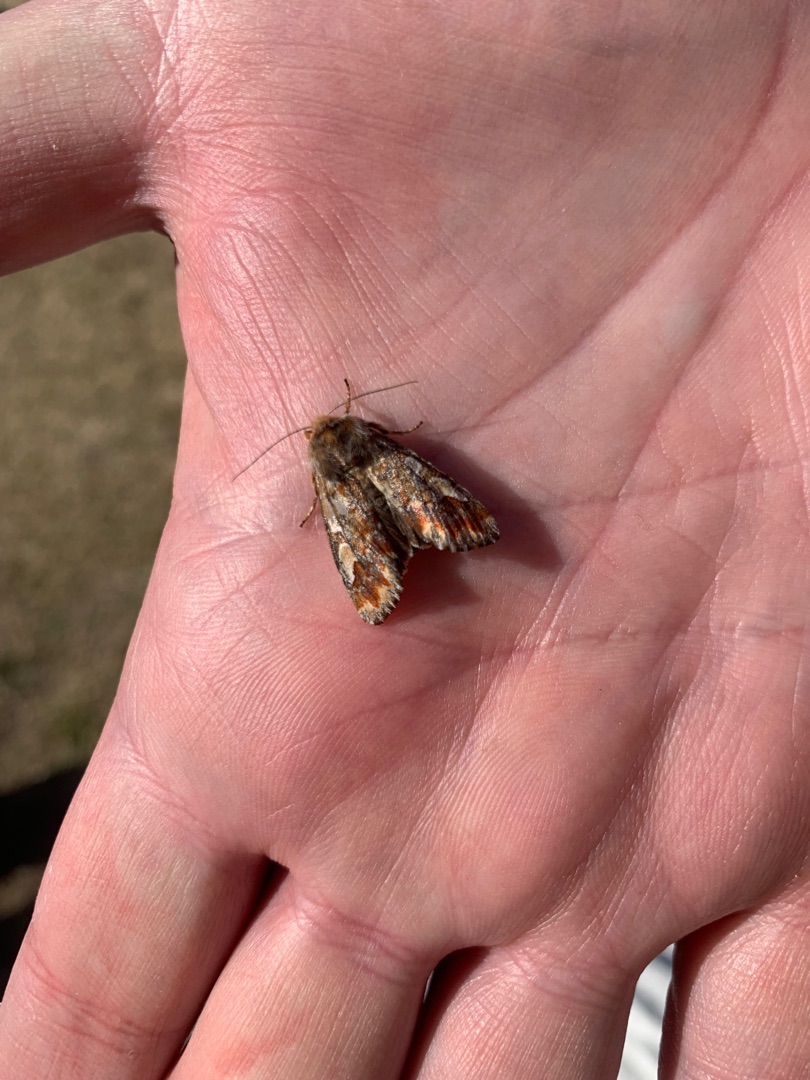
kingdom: Animalia
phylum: Arthropoda
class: Insecta
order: Lepidoptera
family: Noctuidae
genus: Panolis
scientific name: Panolis flammea
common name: Fyrreugle
